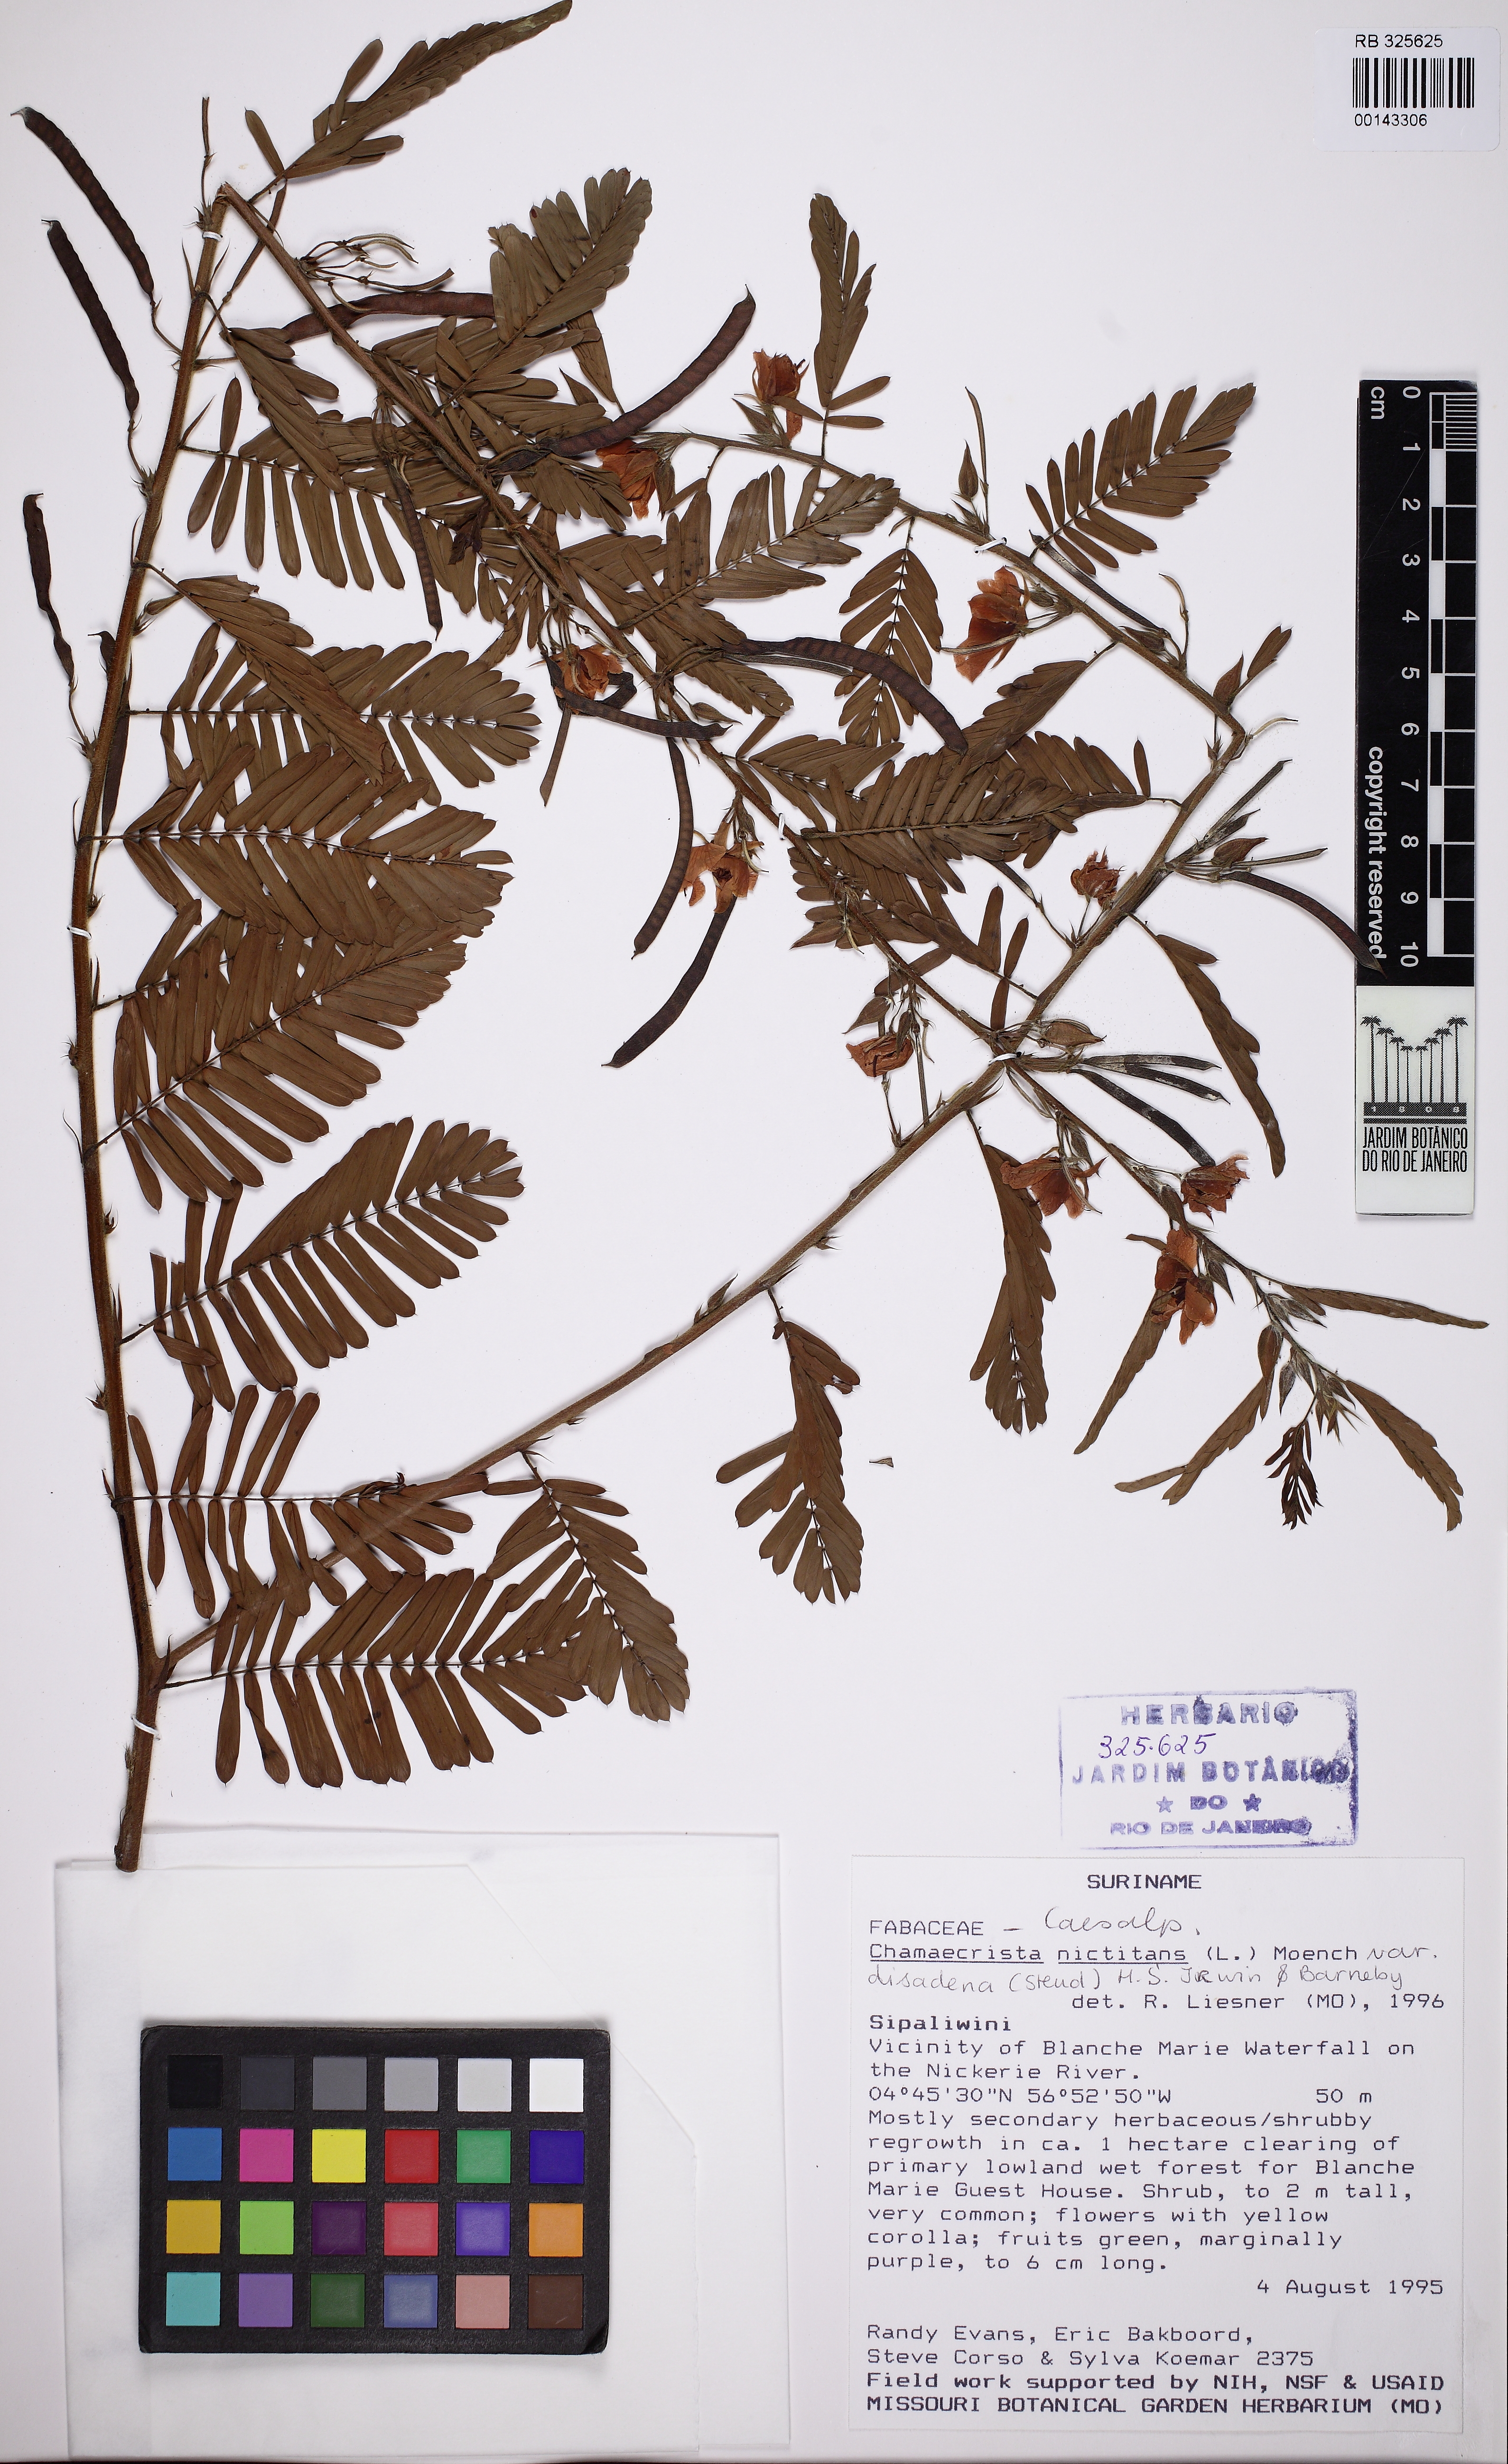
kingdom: Plantae
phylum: Tracheophyta
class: Magnoliopsida
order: Fabales
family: Fabaceae
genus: Chamaecrista
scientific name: Chamaecrista nictitans
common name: Sensitive cassia
